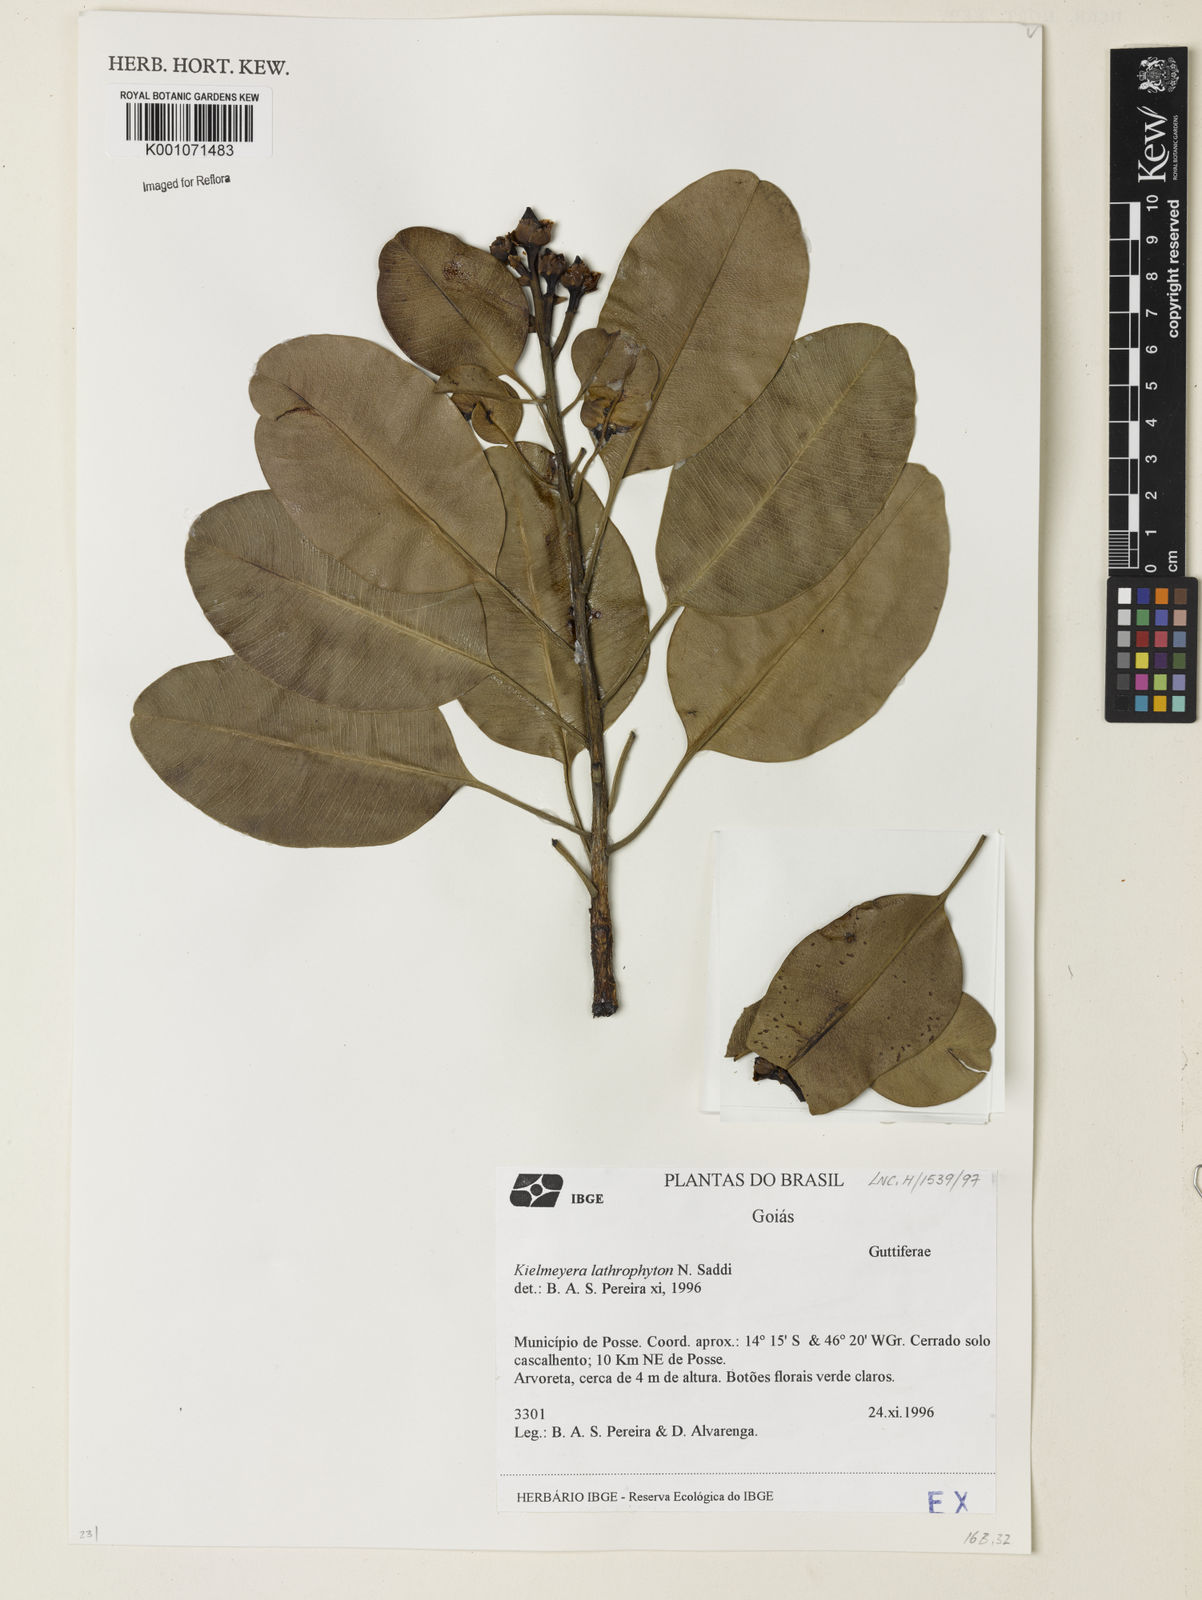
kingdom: Plantae
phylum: Tracheophyta
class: Magnoliopsida
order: Malpighiales
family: Calophyllaceae
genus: Kielmeyera
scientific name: Kielmeyera lathrophyton
